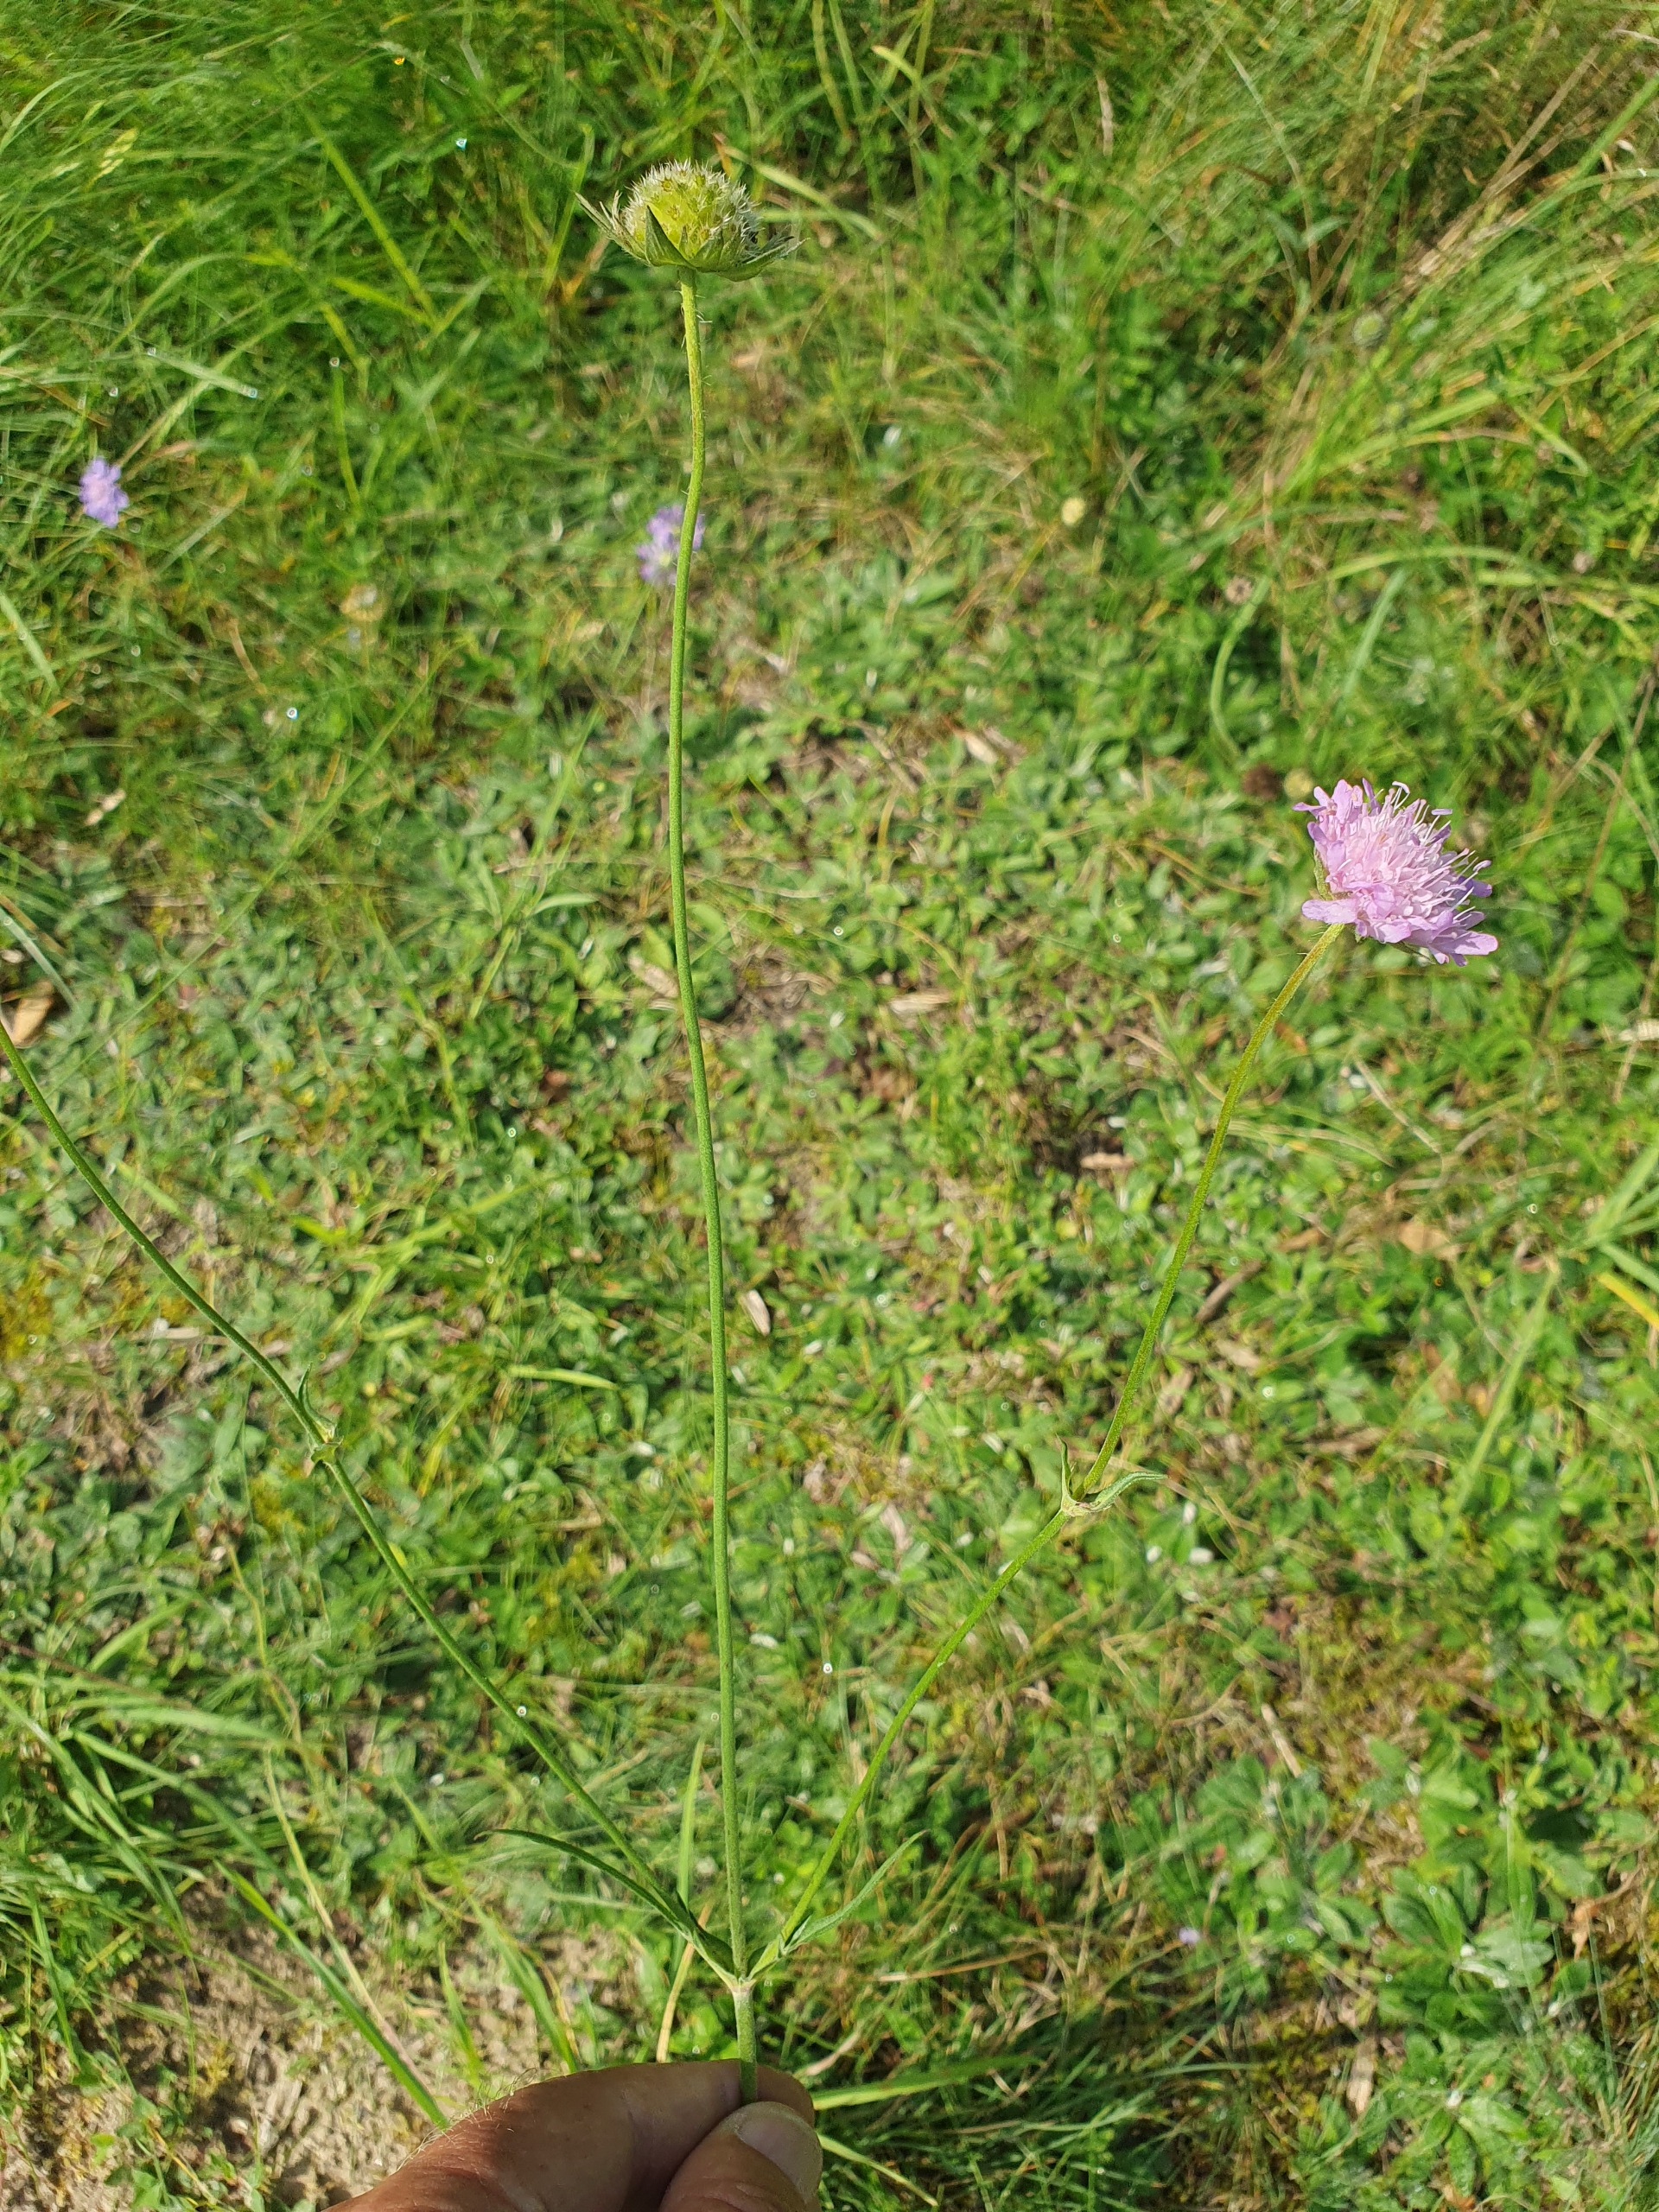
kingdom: Plantae
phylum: Tracheophyta
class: Magnoliopsida
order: Dipsacales
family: Caprifoliaceae
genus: Knautia
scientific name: Knautia arvensis
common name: Blåhat
